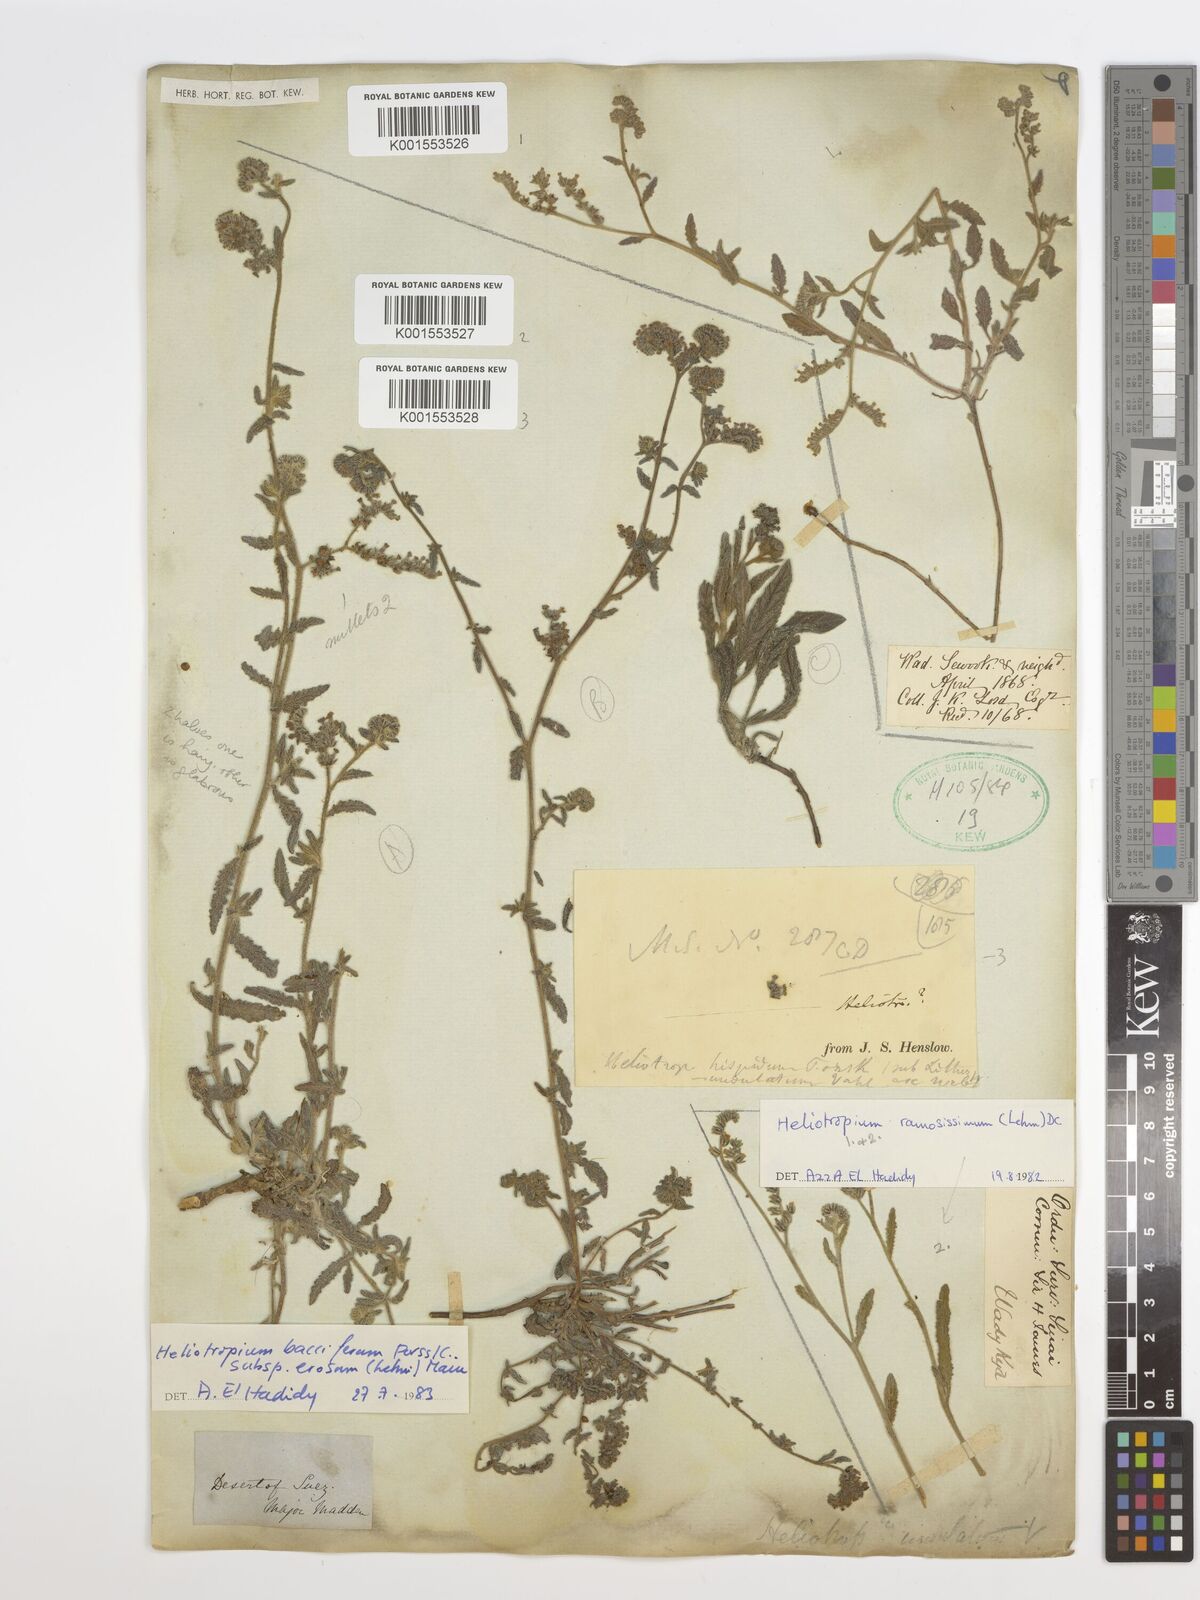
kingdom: Plantae
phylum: Tracheophyta
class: Magnoliopsida
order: Boraginales
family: Heliotropiaceae
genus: Heliotropium
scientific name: Heliotropium crispum
